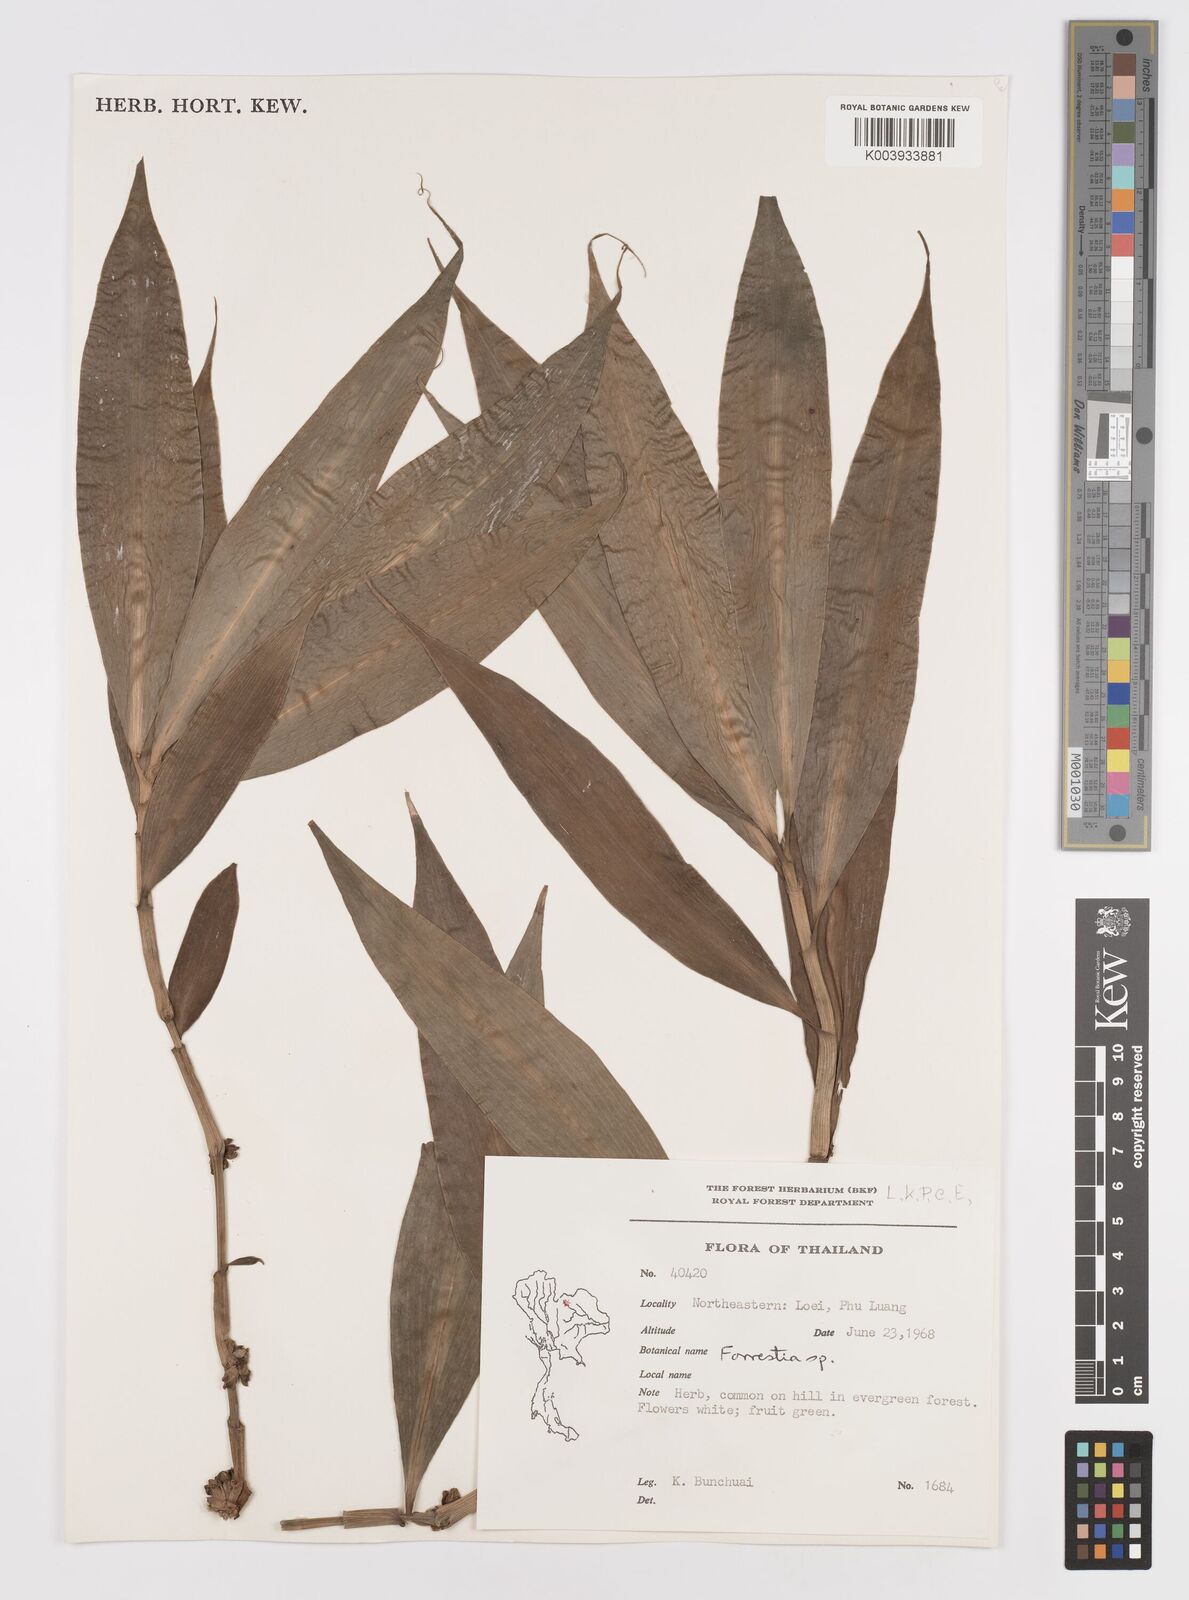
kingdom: Plantae
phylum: Tracheophyta
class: Liliopsida
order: Commelinales
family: Commelinaceae
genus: Amischotolype
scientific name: Amischotolype
